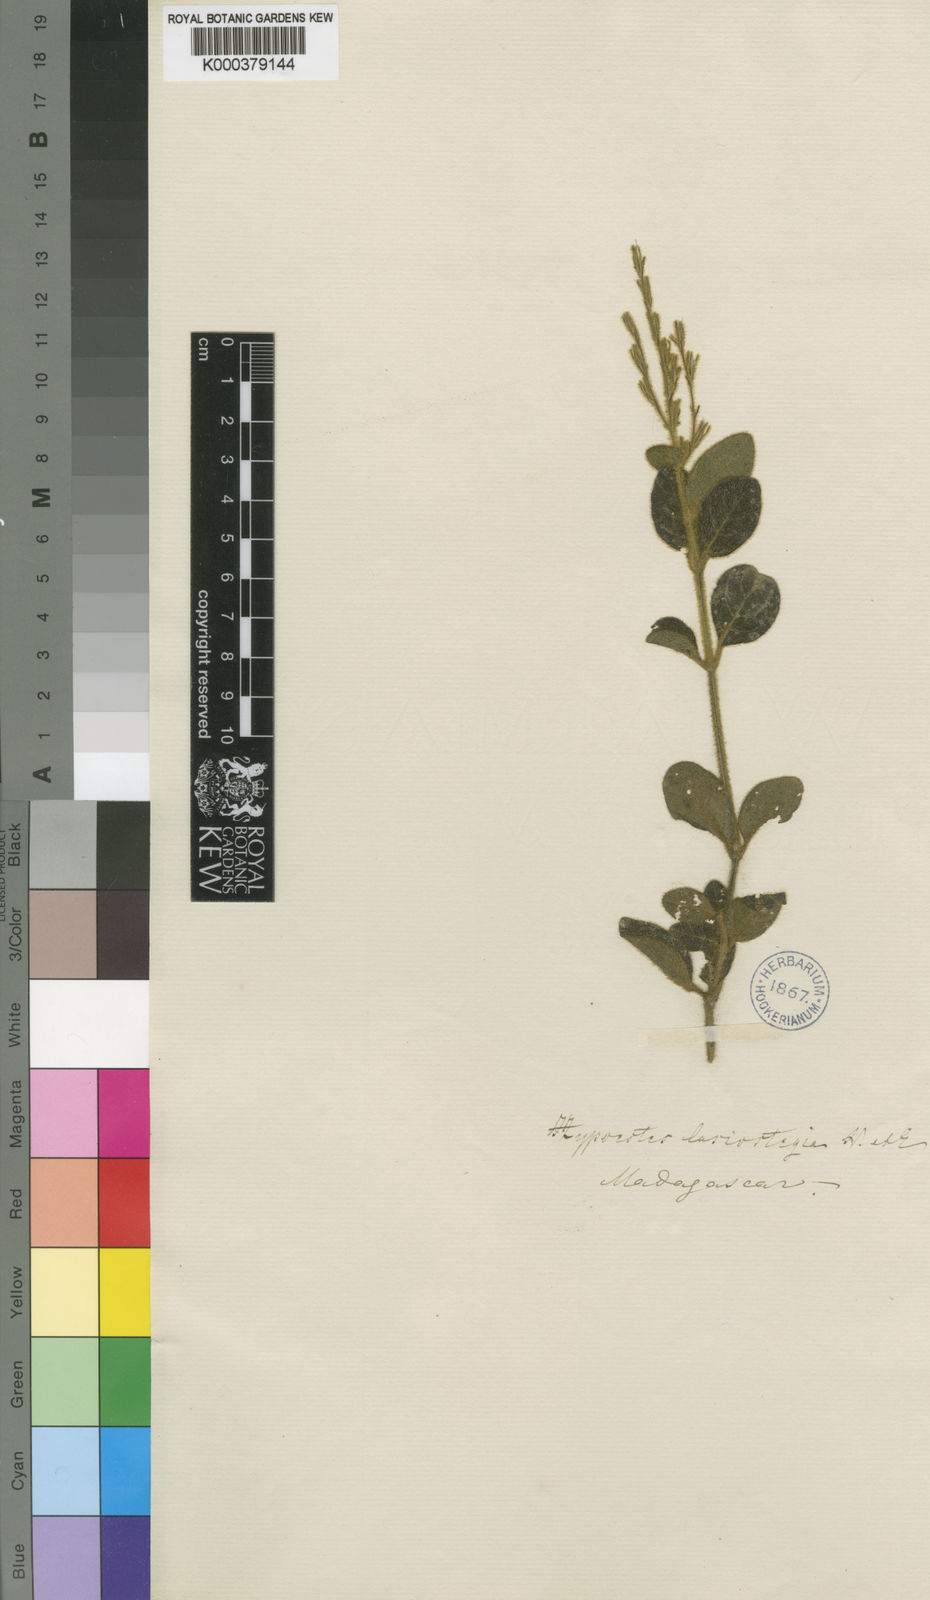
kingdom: Plantae
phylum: Tracheophyta
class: Magnoliopsida
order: Lamiales
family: Acanthaceae
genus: Hypoestes
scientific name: Hypoestes lasiostegia
